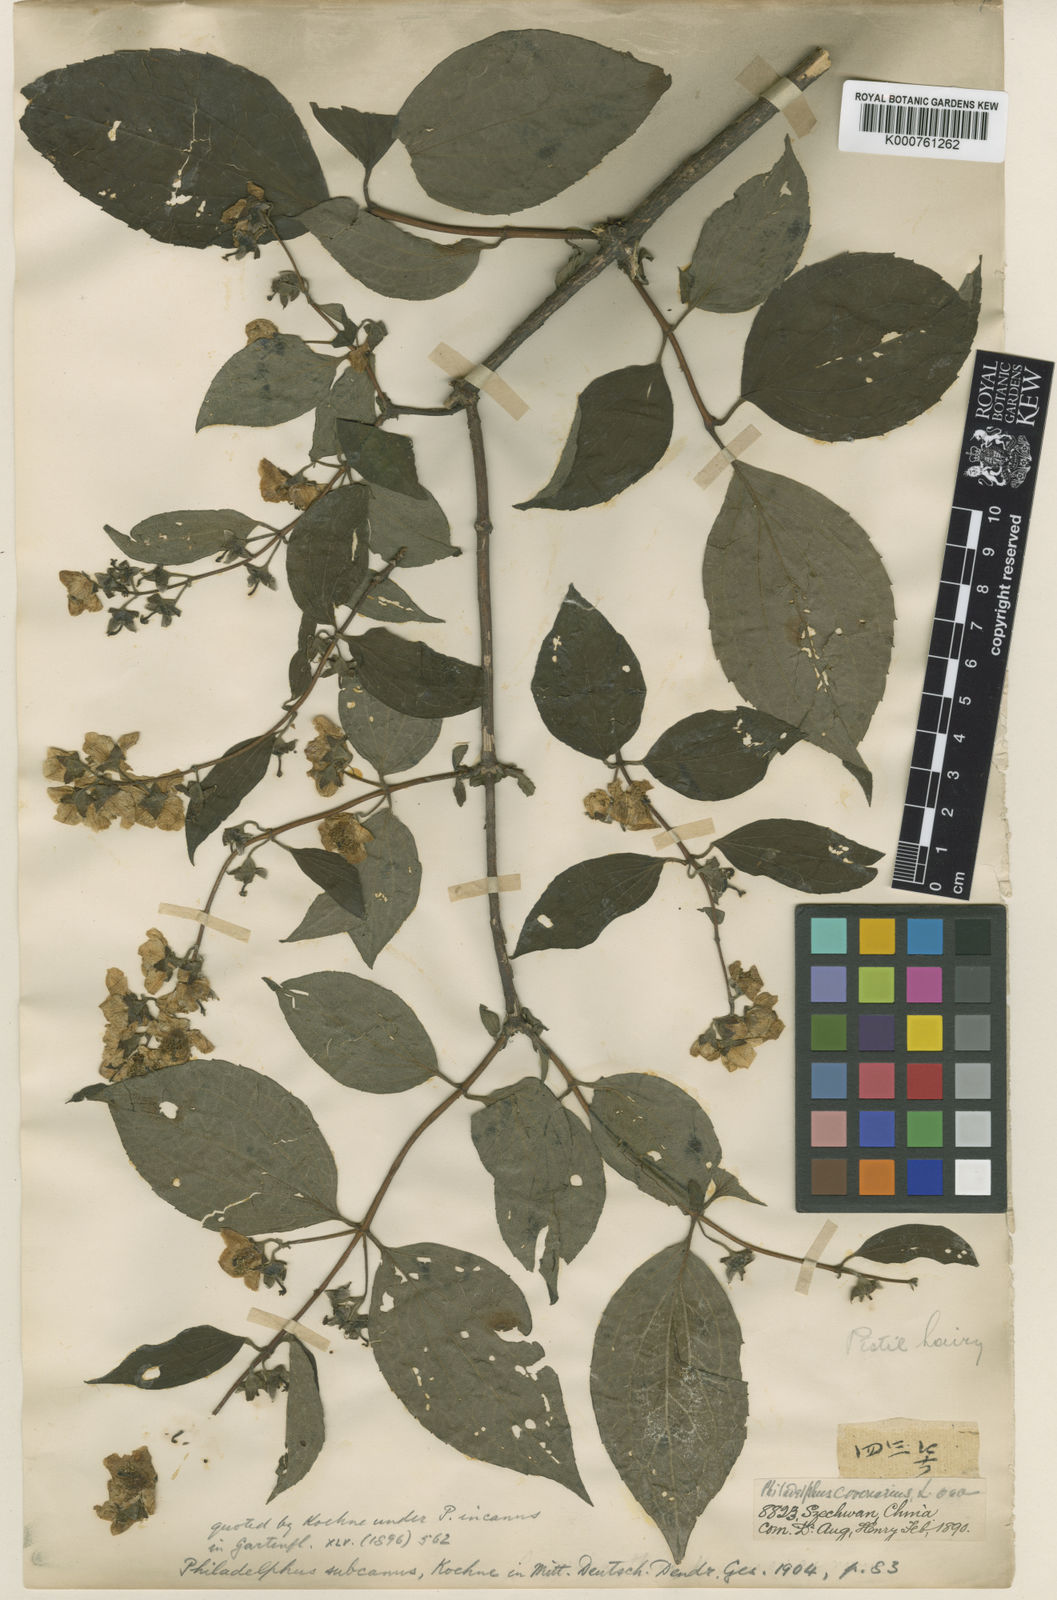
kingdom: Plantae
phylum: Tracheophyta
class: Magnoliopsida
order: Cornales
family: Hydrangeaceae
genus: Philadelphus
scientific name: Philadelphus subcanus
